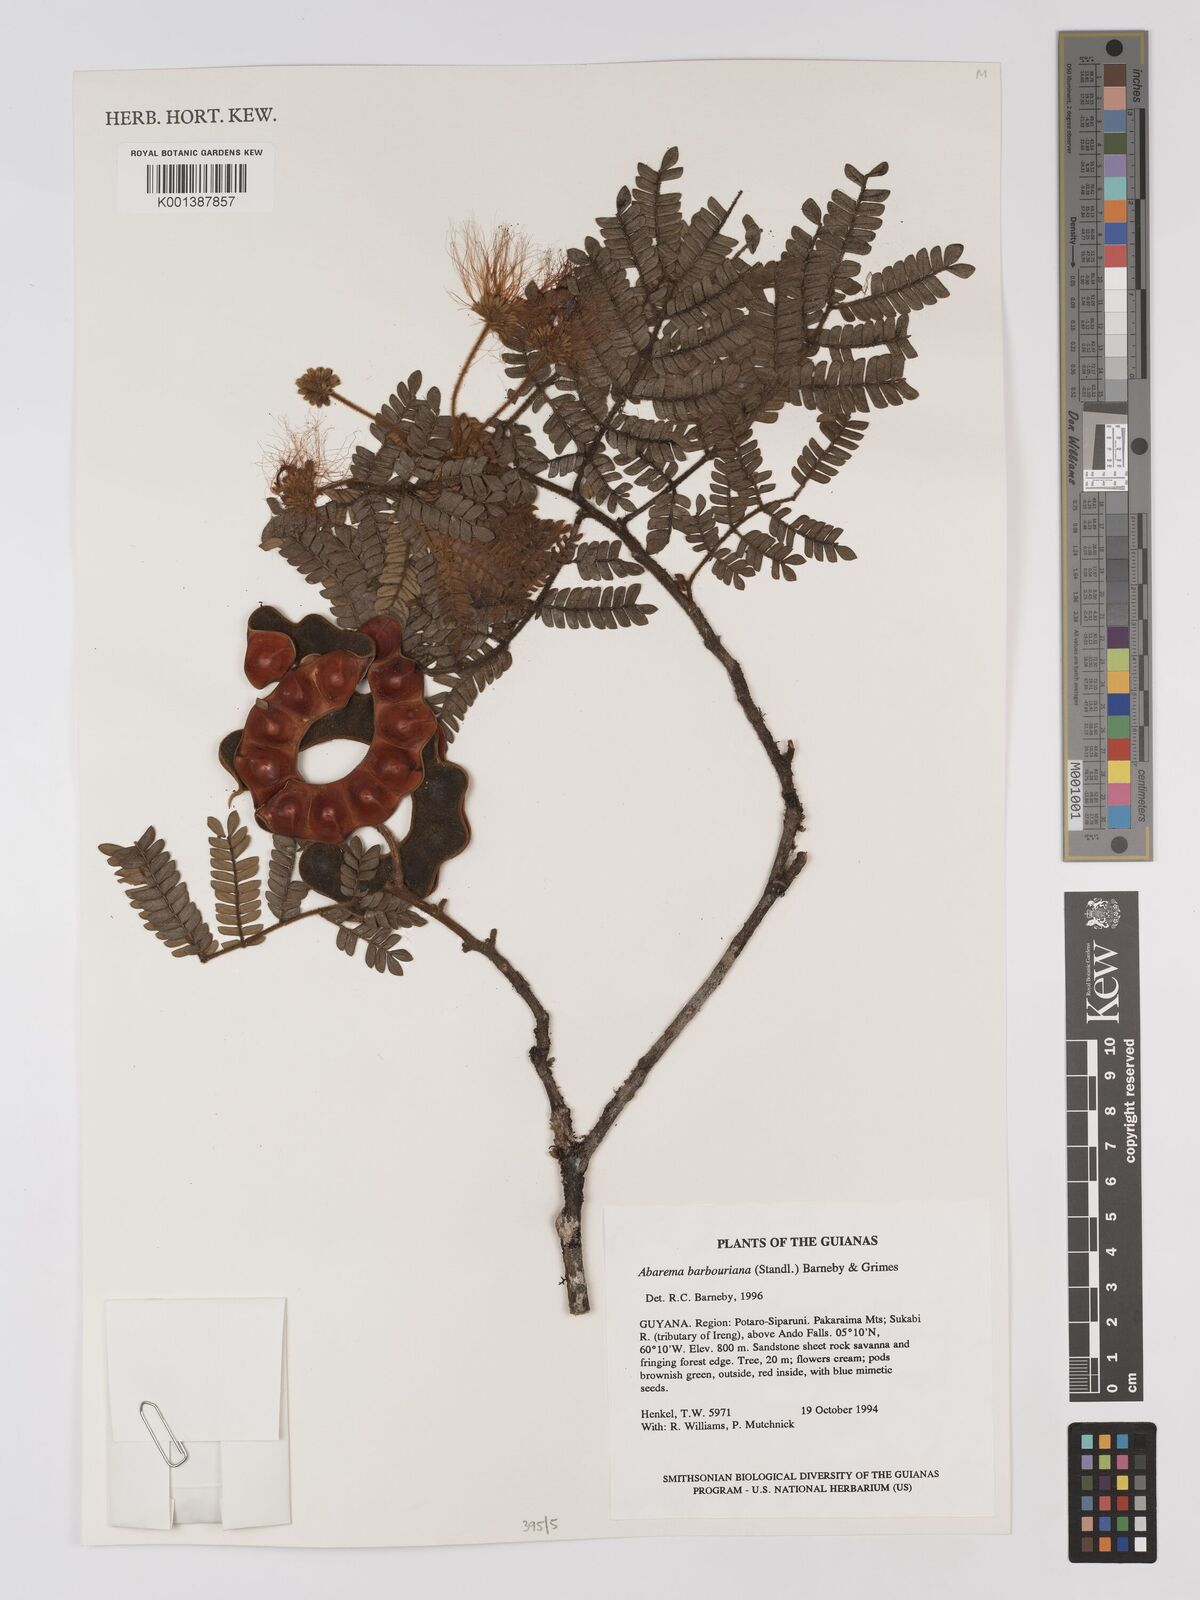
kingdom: Plantae
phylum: Tracheophyta
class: Magnoliopsida
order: Fabales
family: Fabaceae
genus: Jupunba
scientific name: Jupunba barbouriana
